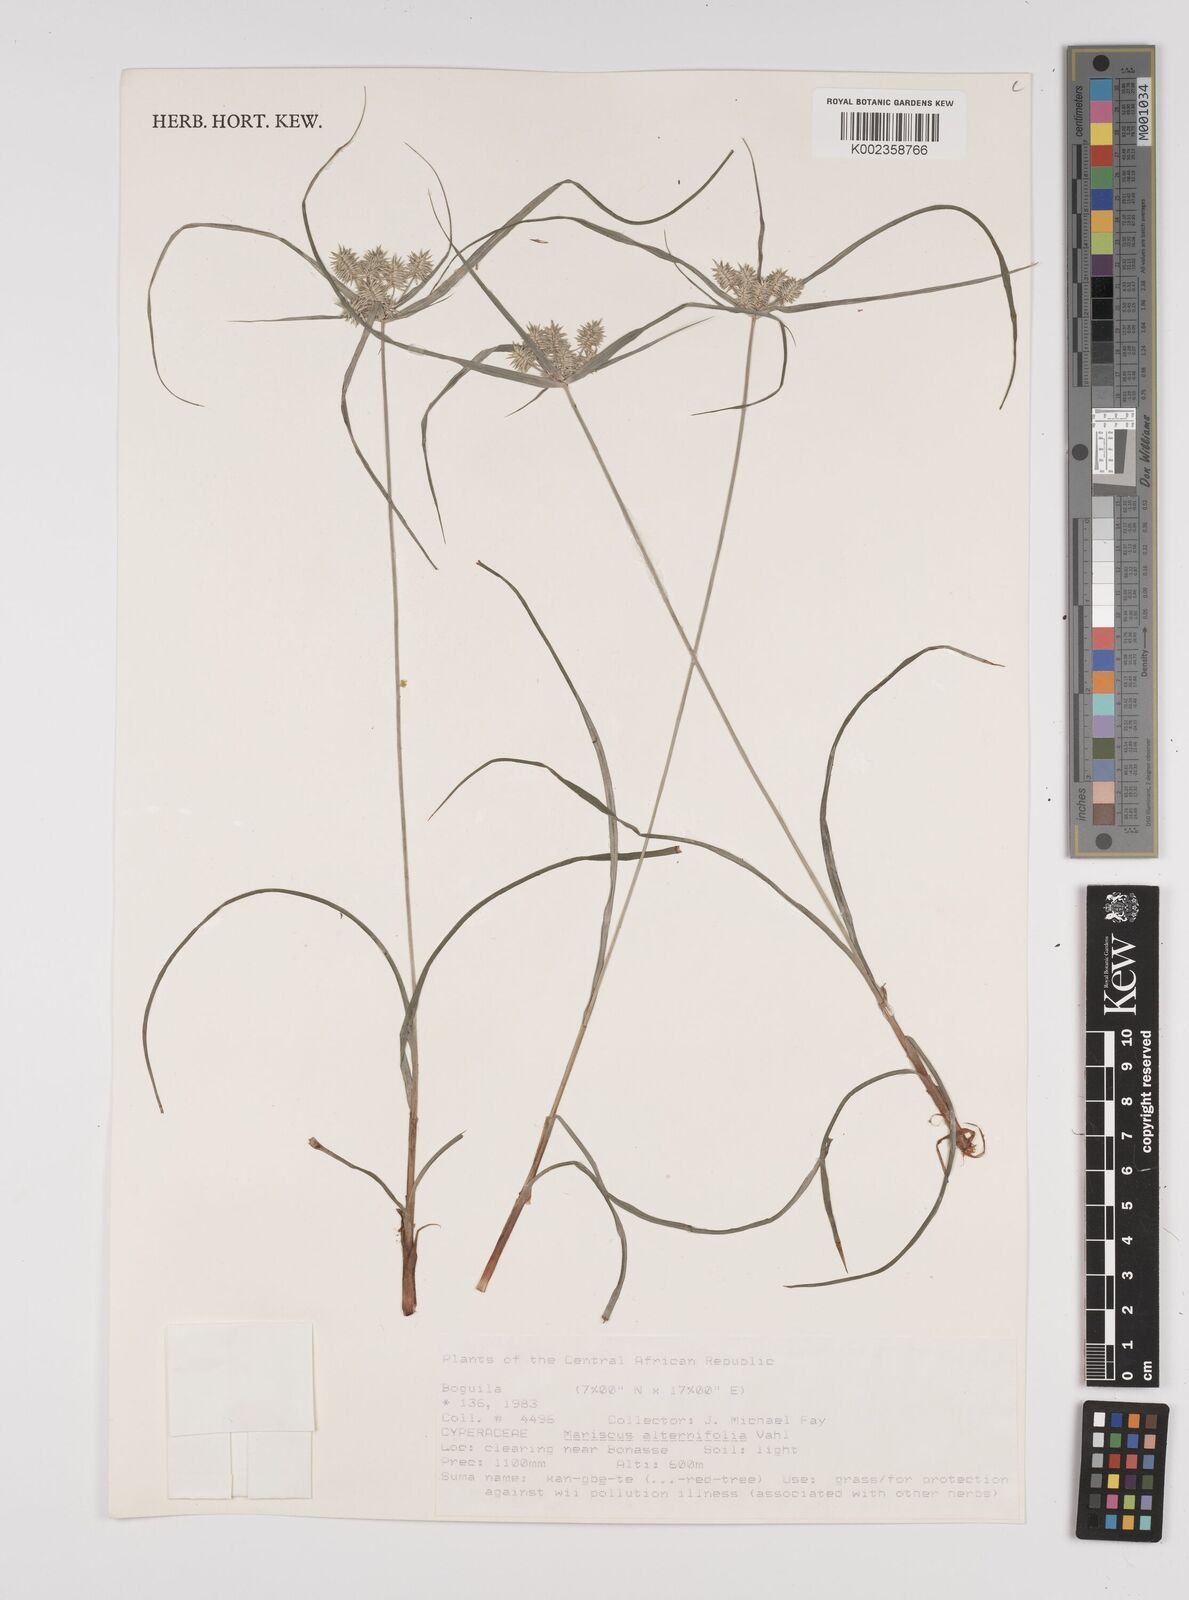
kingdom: Plantae
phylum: Tracheophyta
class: Liliopsida
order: Poales
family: Cyperaceae
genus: Cyperus
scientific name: Cyperus alternifolius
